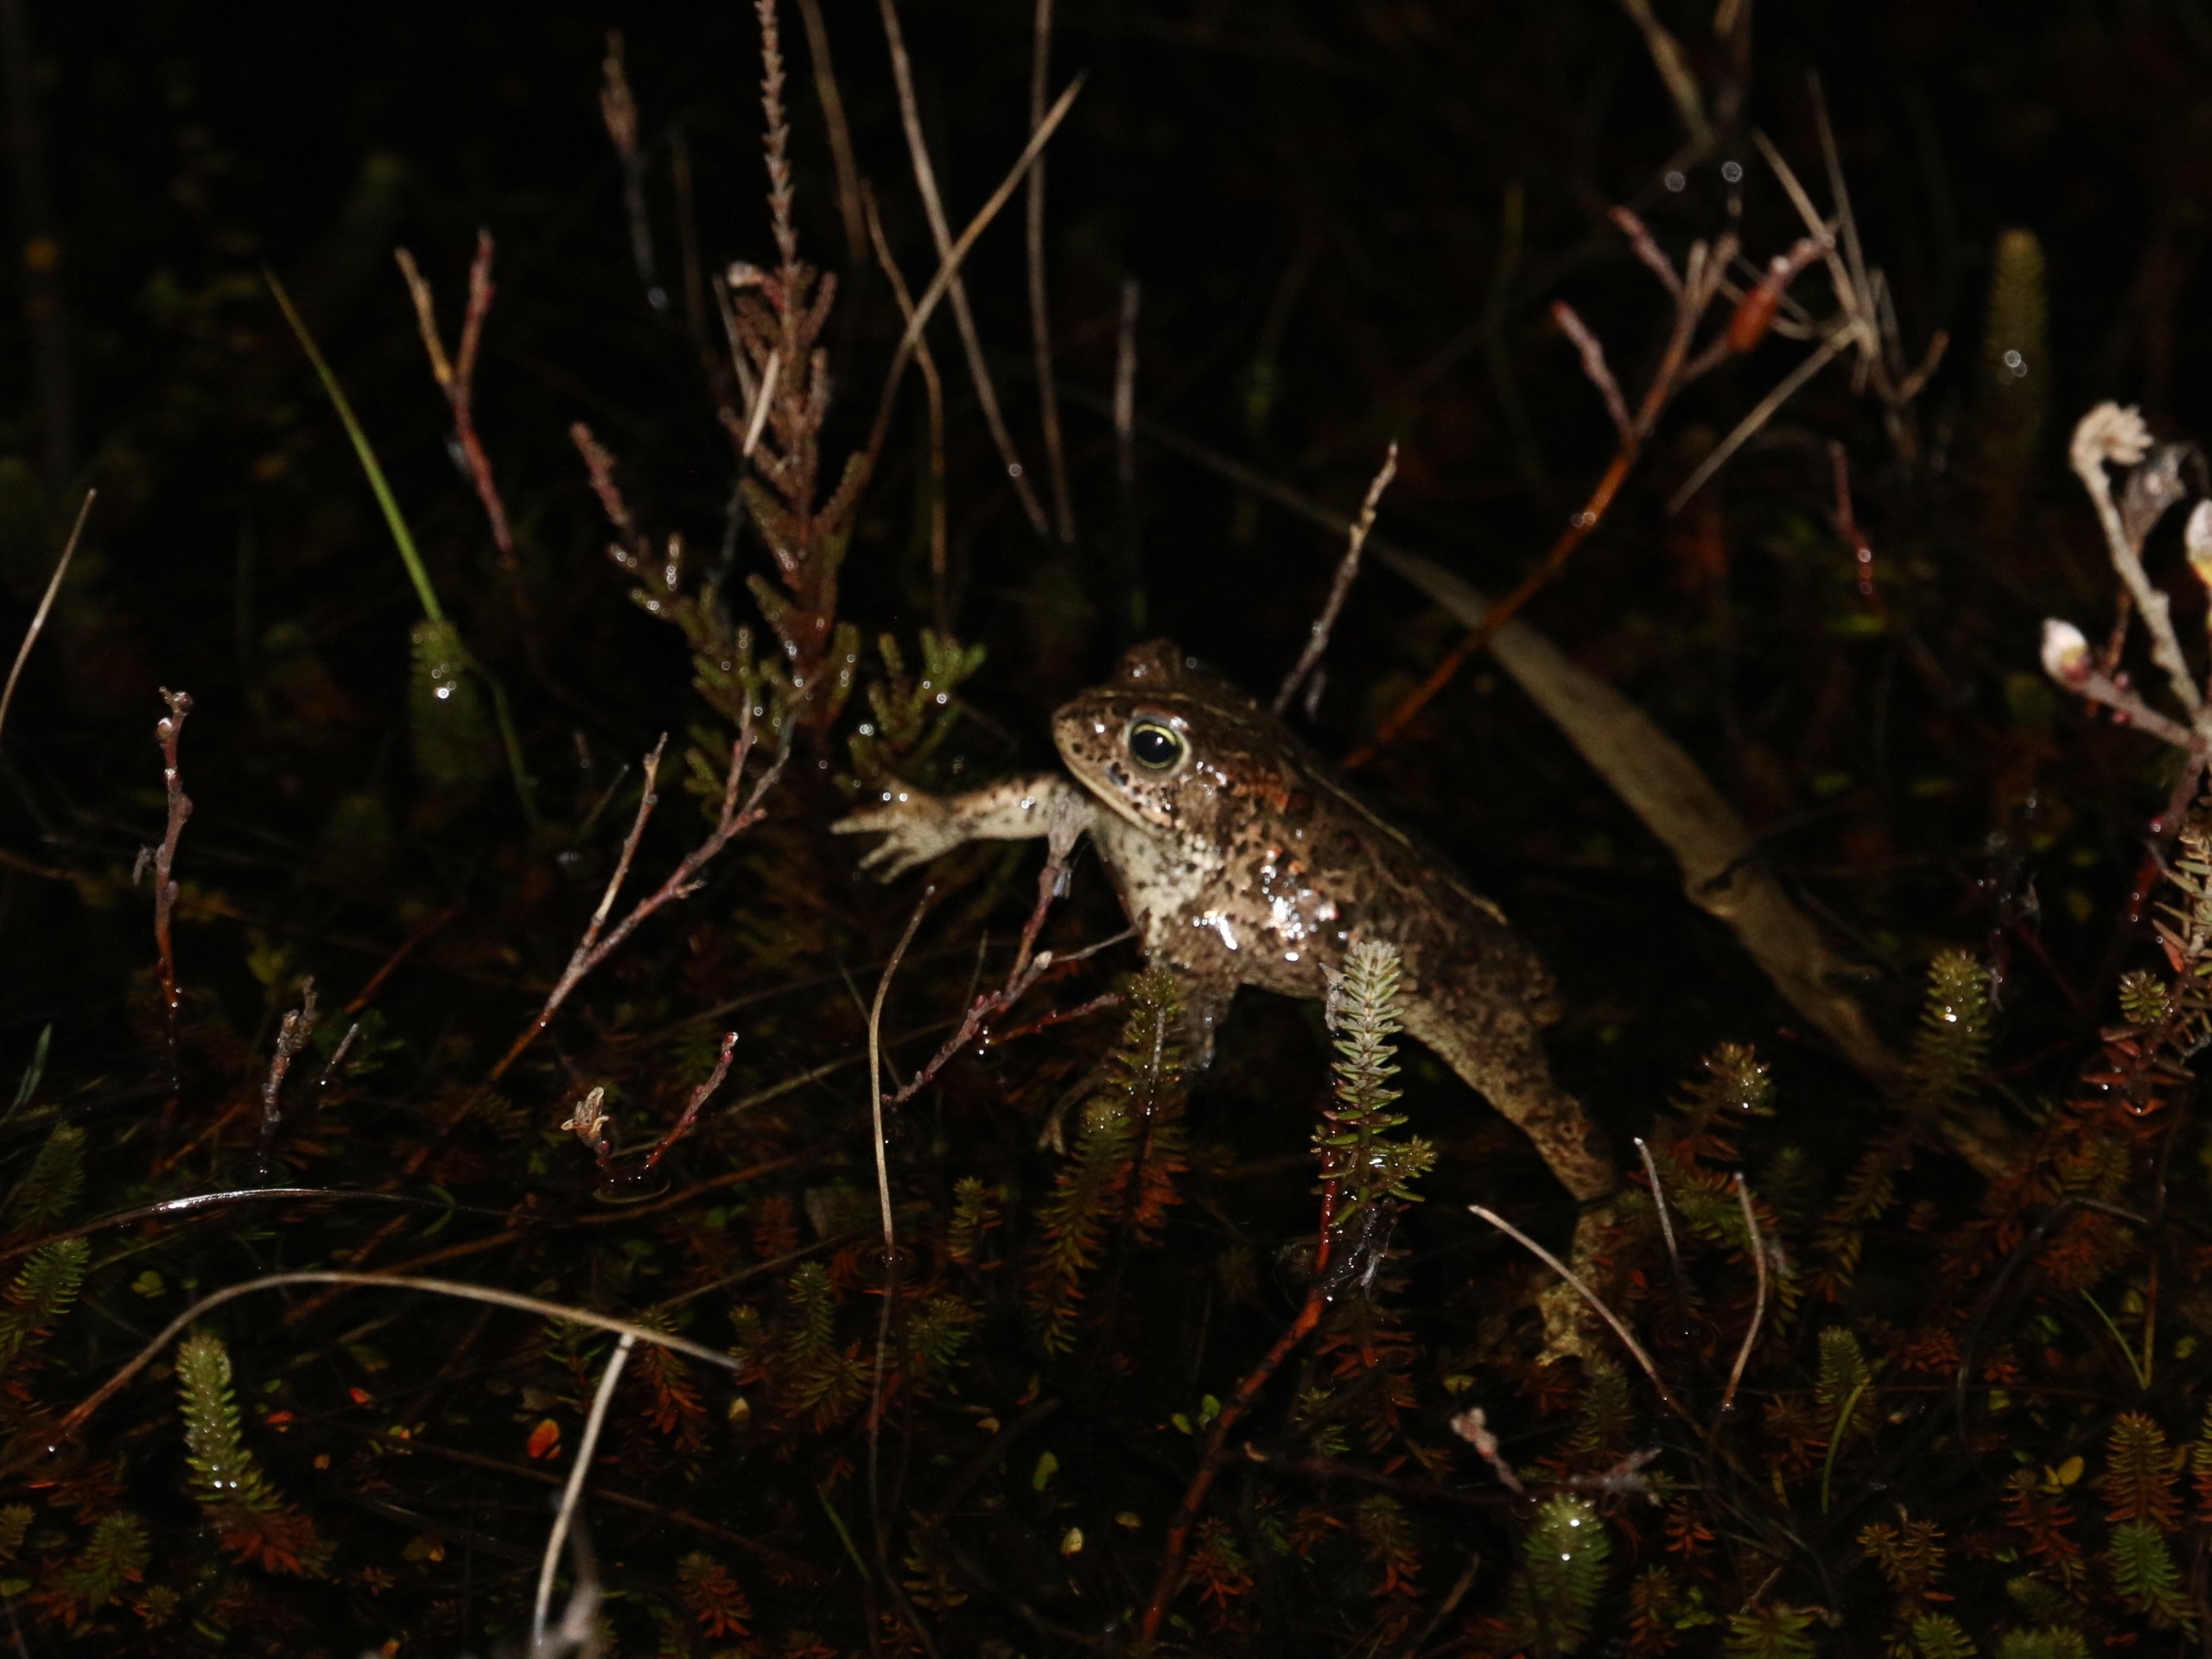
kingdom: Animalia
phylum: Chordata
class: Amphibia
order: Anura
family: Bufonidae
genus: Epidalea
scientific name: Epidalea calamita
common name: Strandtudse
